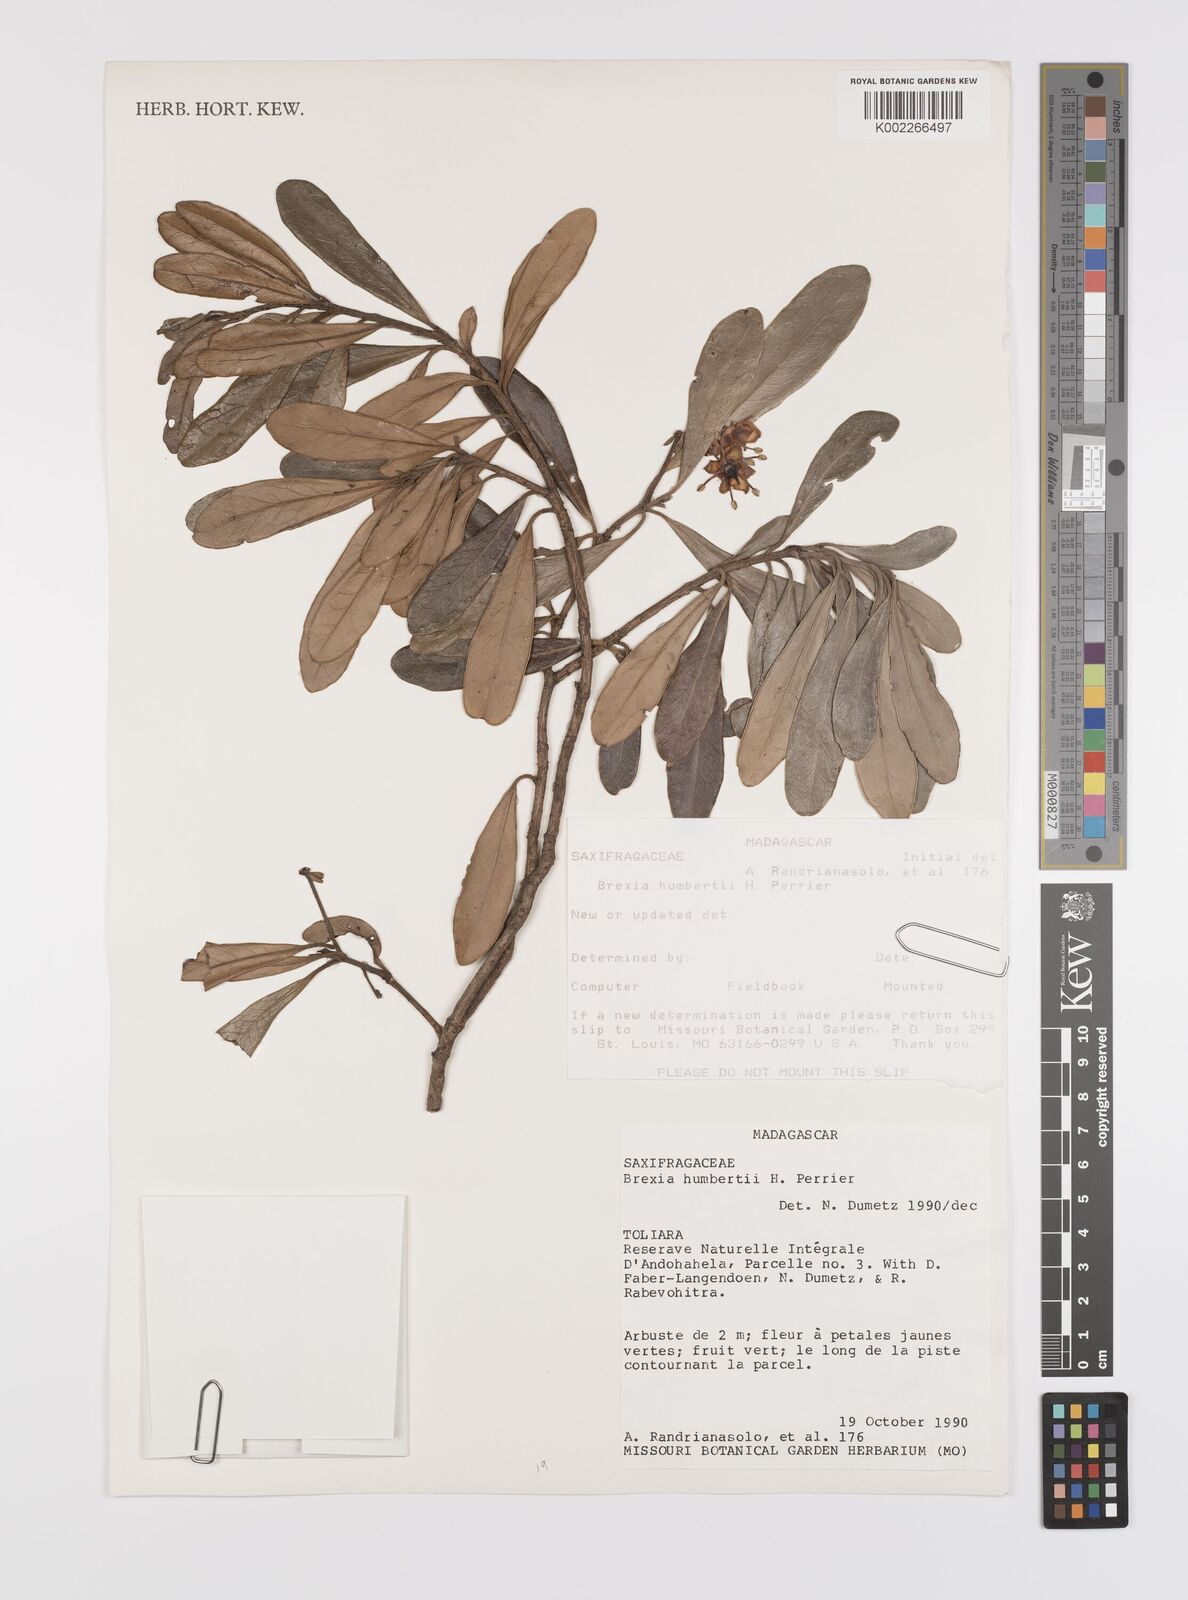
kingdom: Plantae
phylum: Tracheophyta
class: Magnoliopsida
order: Celastrales
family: Celastraceae
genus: Brexia
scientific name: Brexia humbertii
